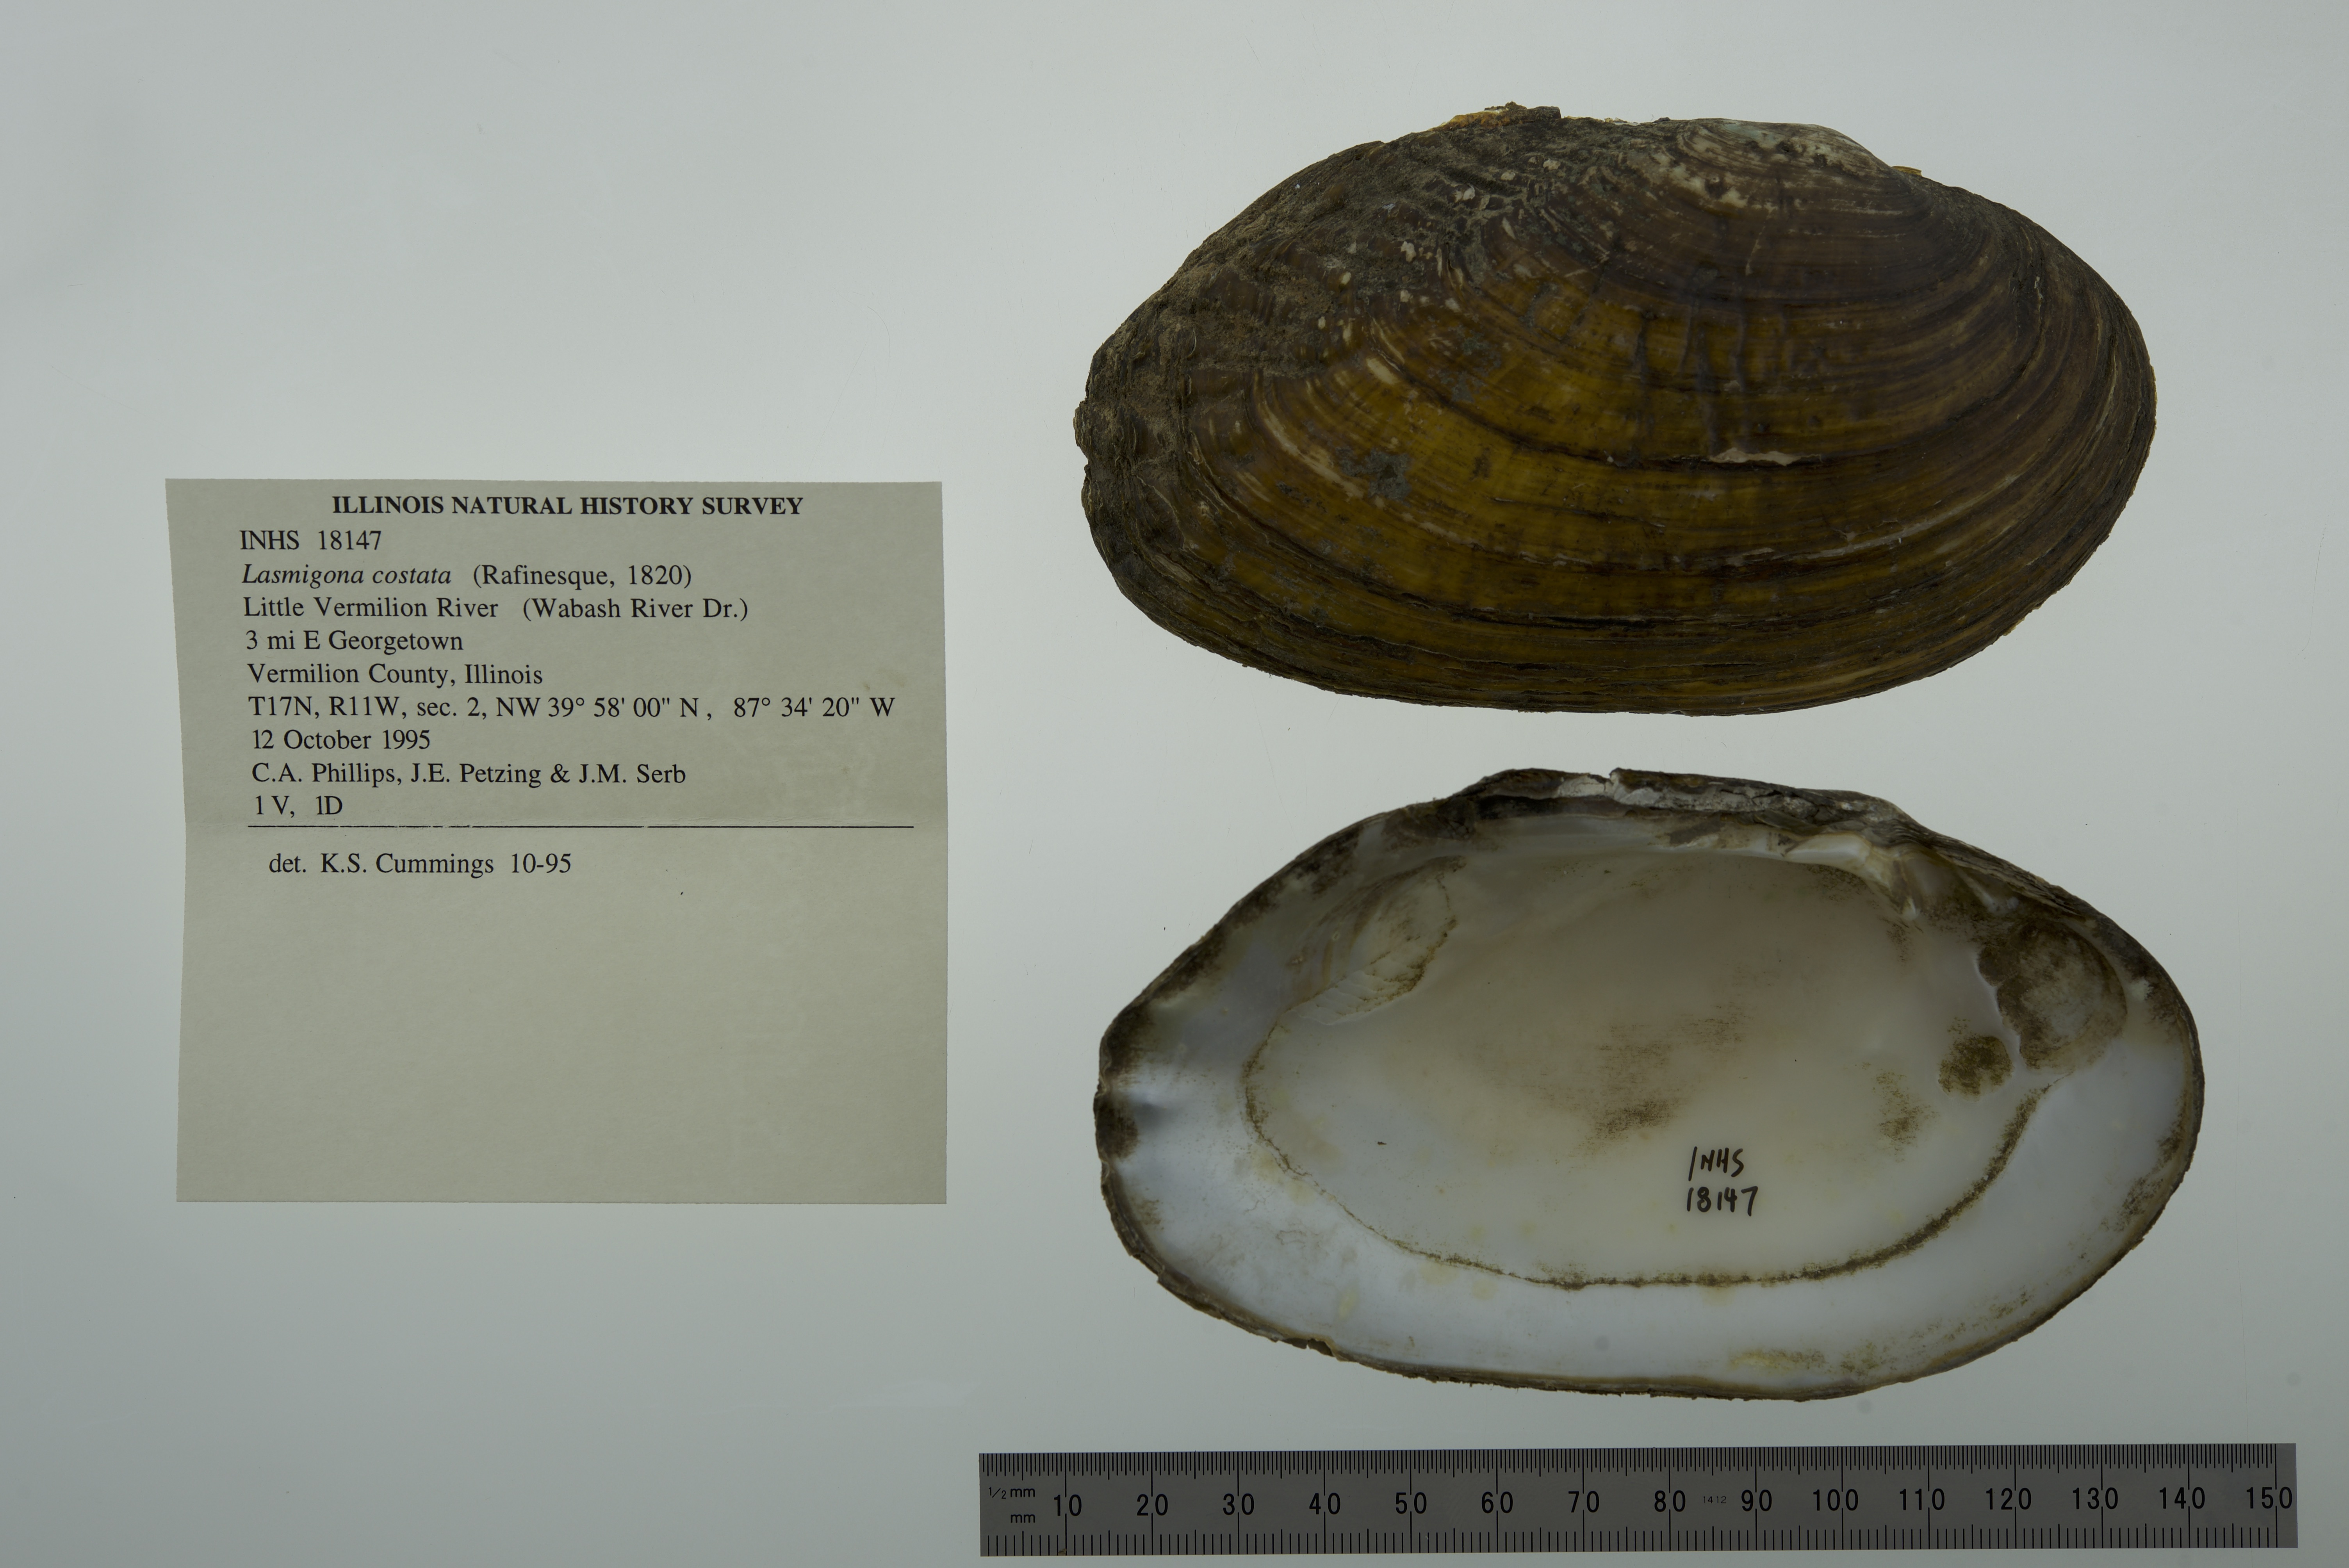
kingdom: Animalia
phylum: Mollusca
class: Bivalvia
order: Unionida
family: Unionidae
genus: Lasmigona
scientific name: Lasmigona costata
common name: Flutedshell
